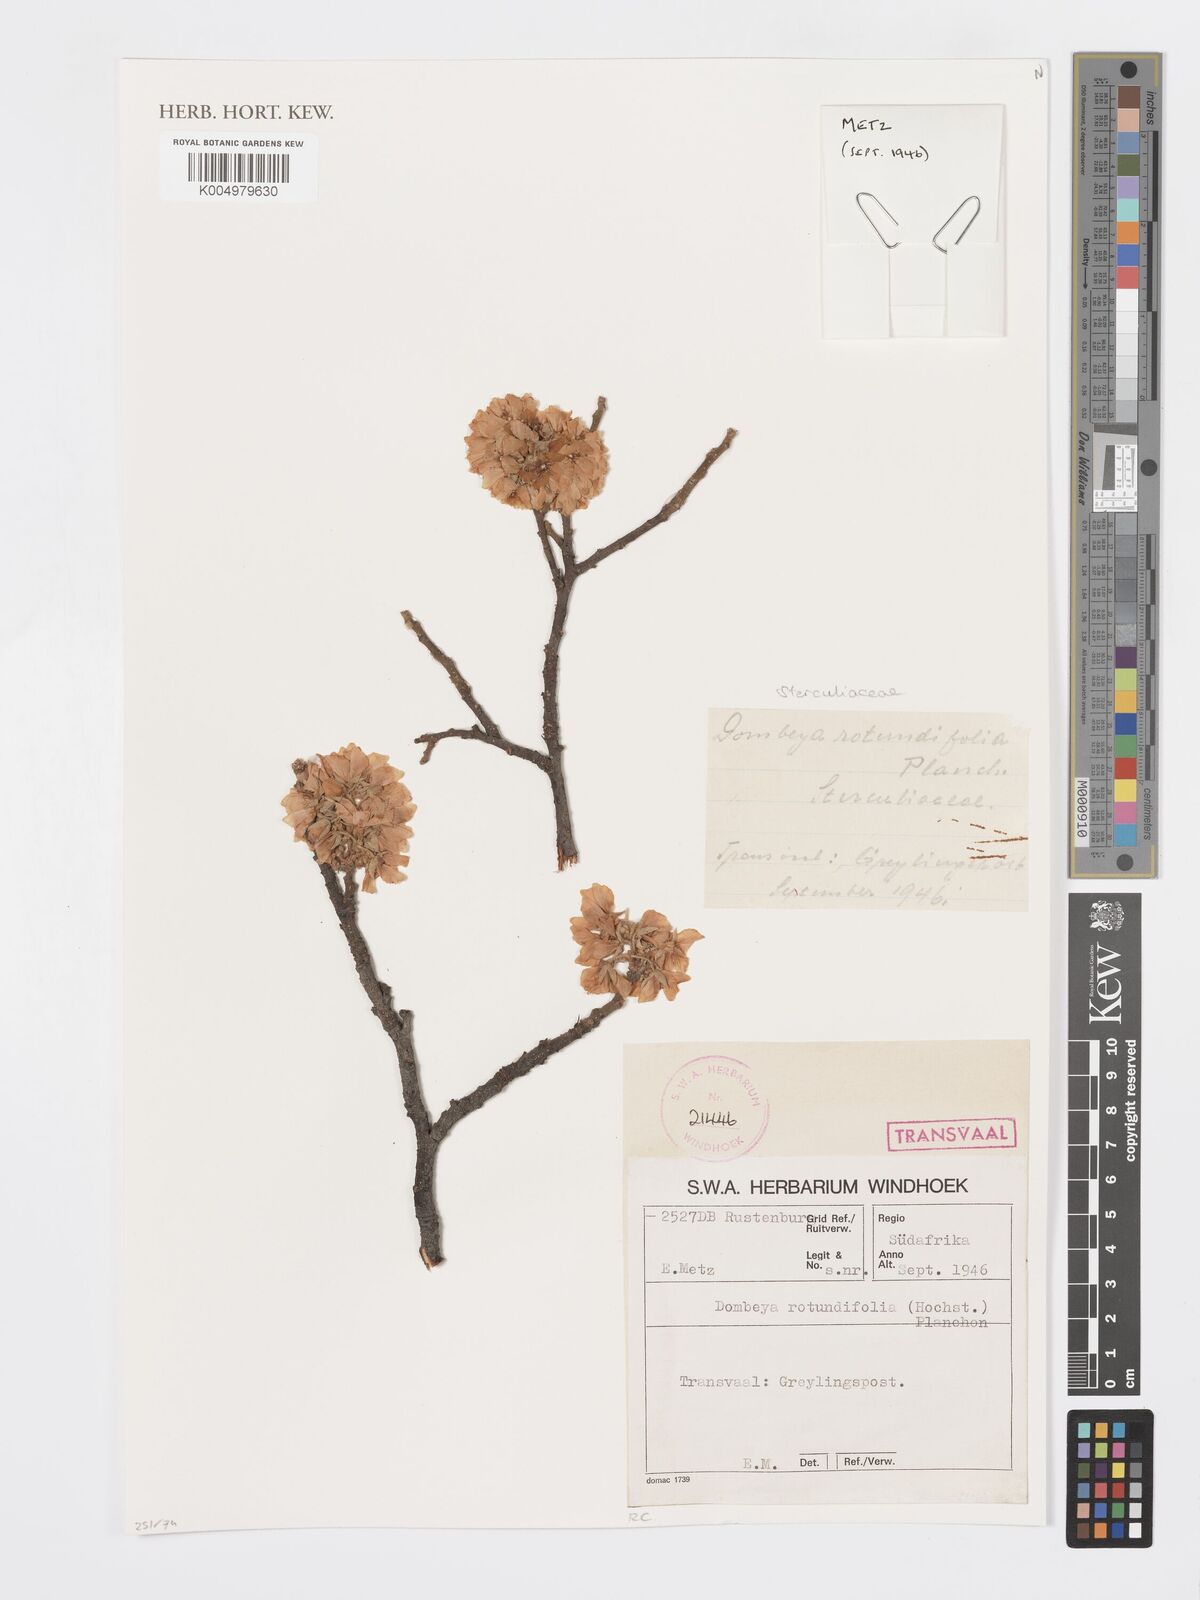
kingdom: Plantae
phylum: Tracheophyta
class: Magnoliopsida
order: Malvales
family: Malvaceae
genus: Dombeya
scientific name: Dombeya rotundifolia
